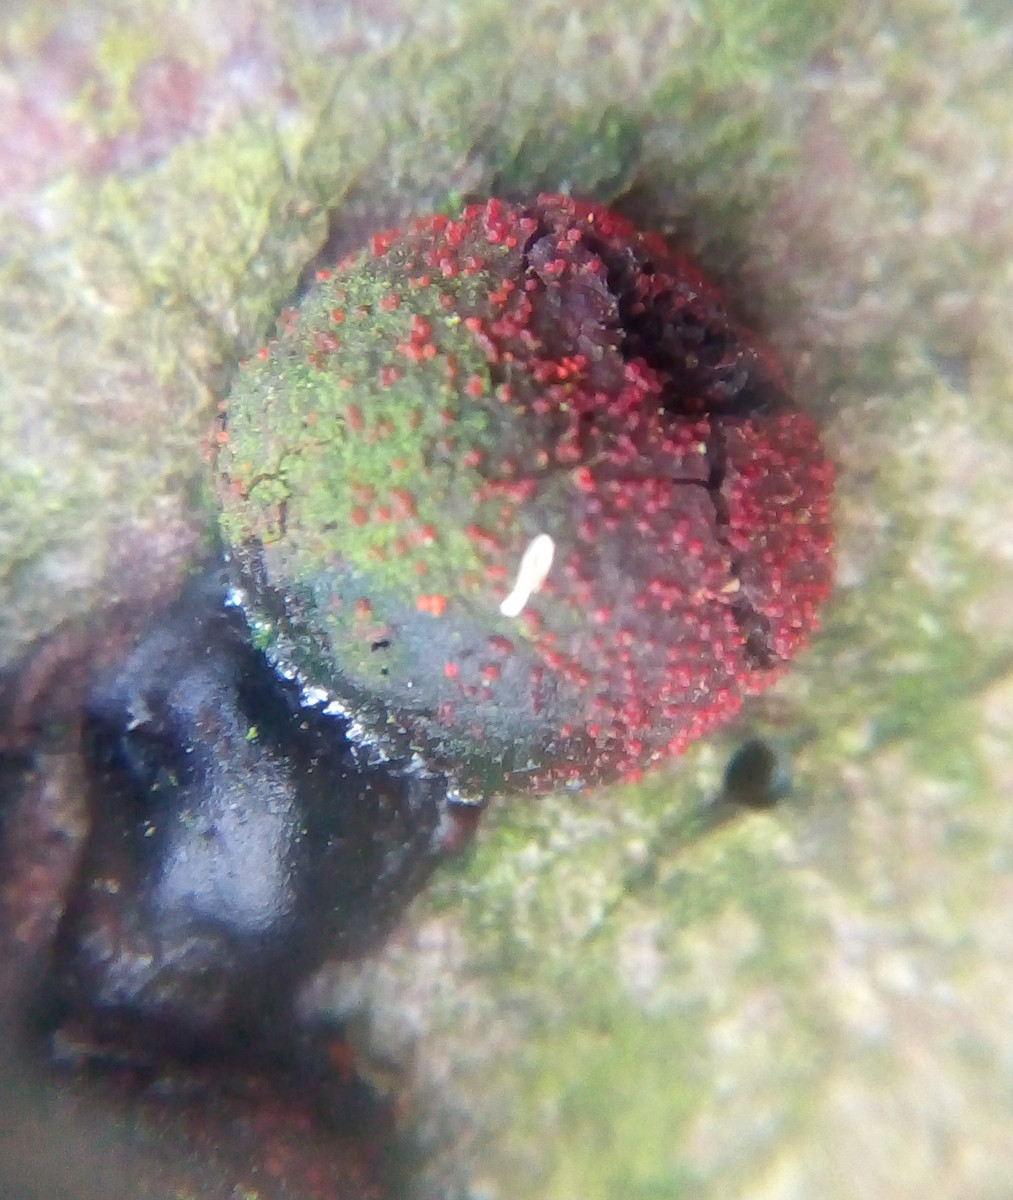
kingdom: Fungi
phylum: Ascomycota
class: Sordariomycetes
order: Hypocreales
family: Nectriaceae
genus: Cosmospora
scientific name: Cosmospora arxii
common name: kuljordbær-cinnobersvamp
